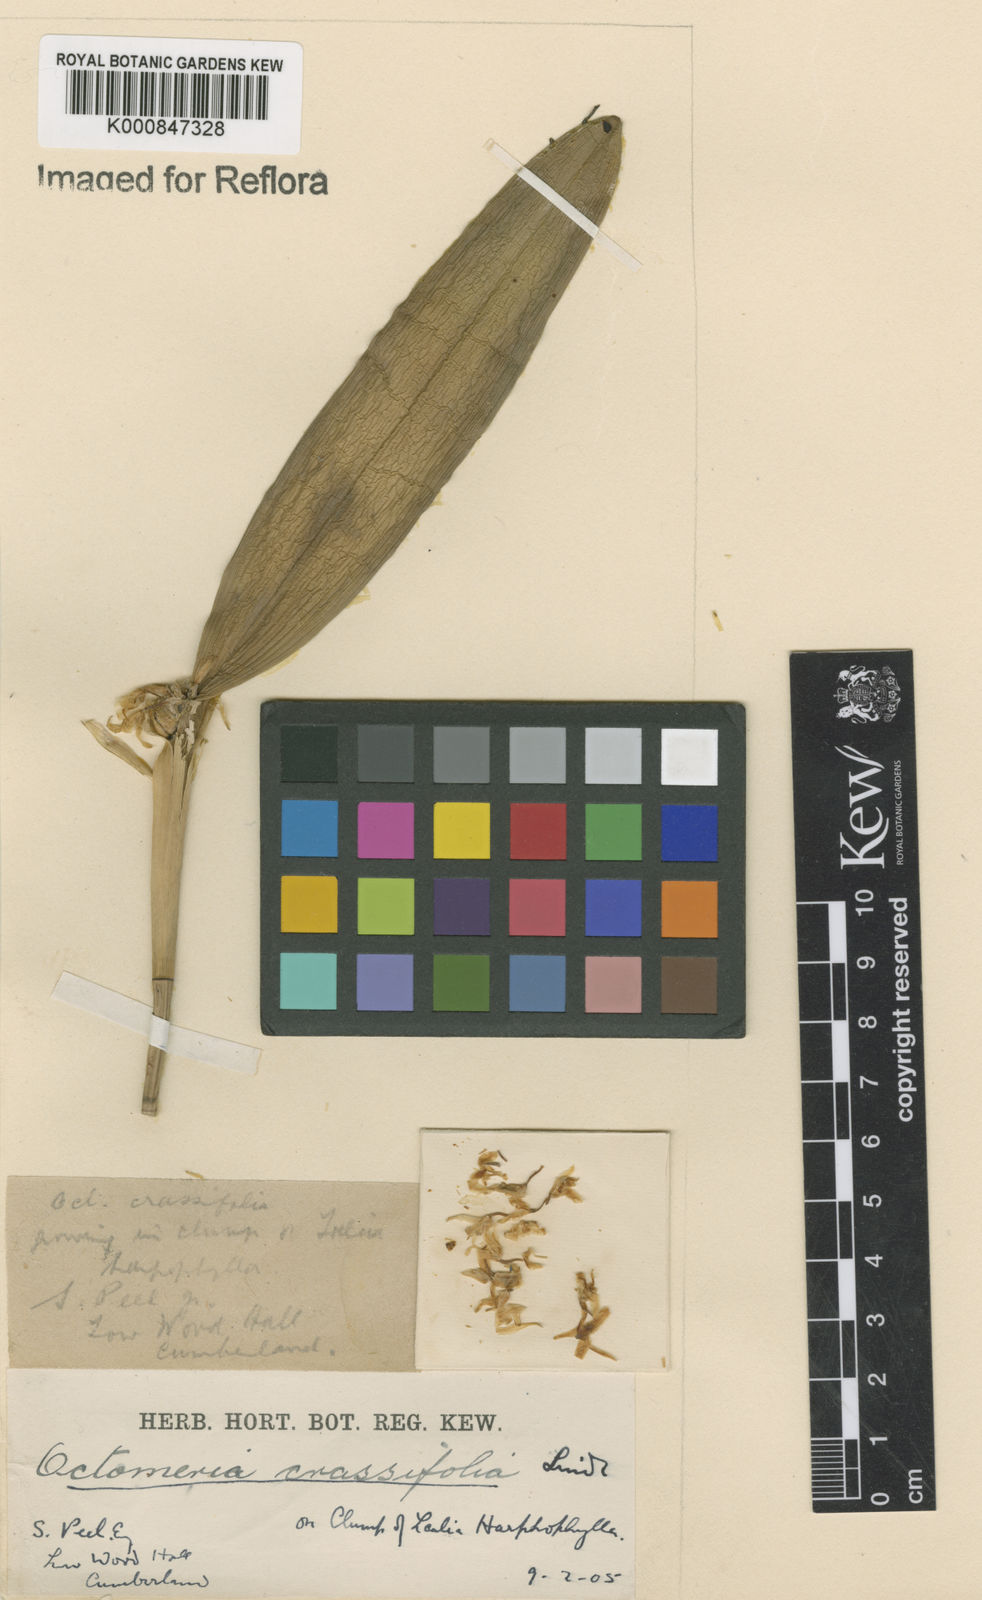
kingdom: Plantae
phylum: Tracheophyta
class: Liliopsida
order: Asparagales
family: Orchidaceae
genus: Octomeria
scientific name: Octomeria crassifolia
